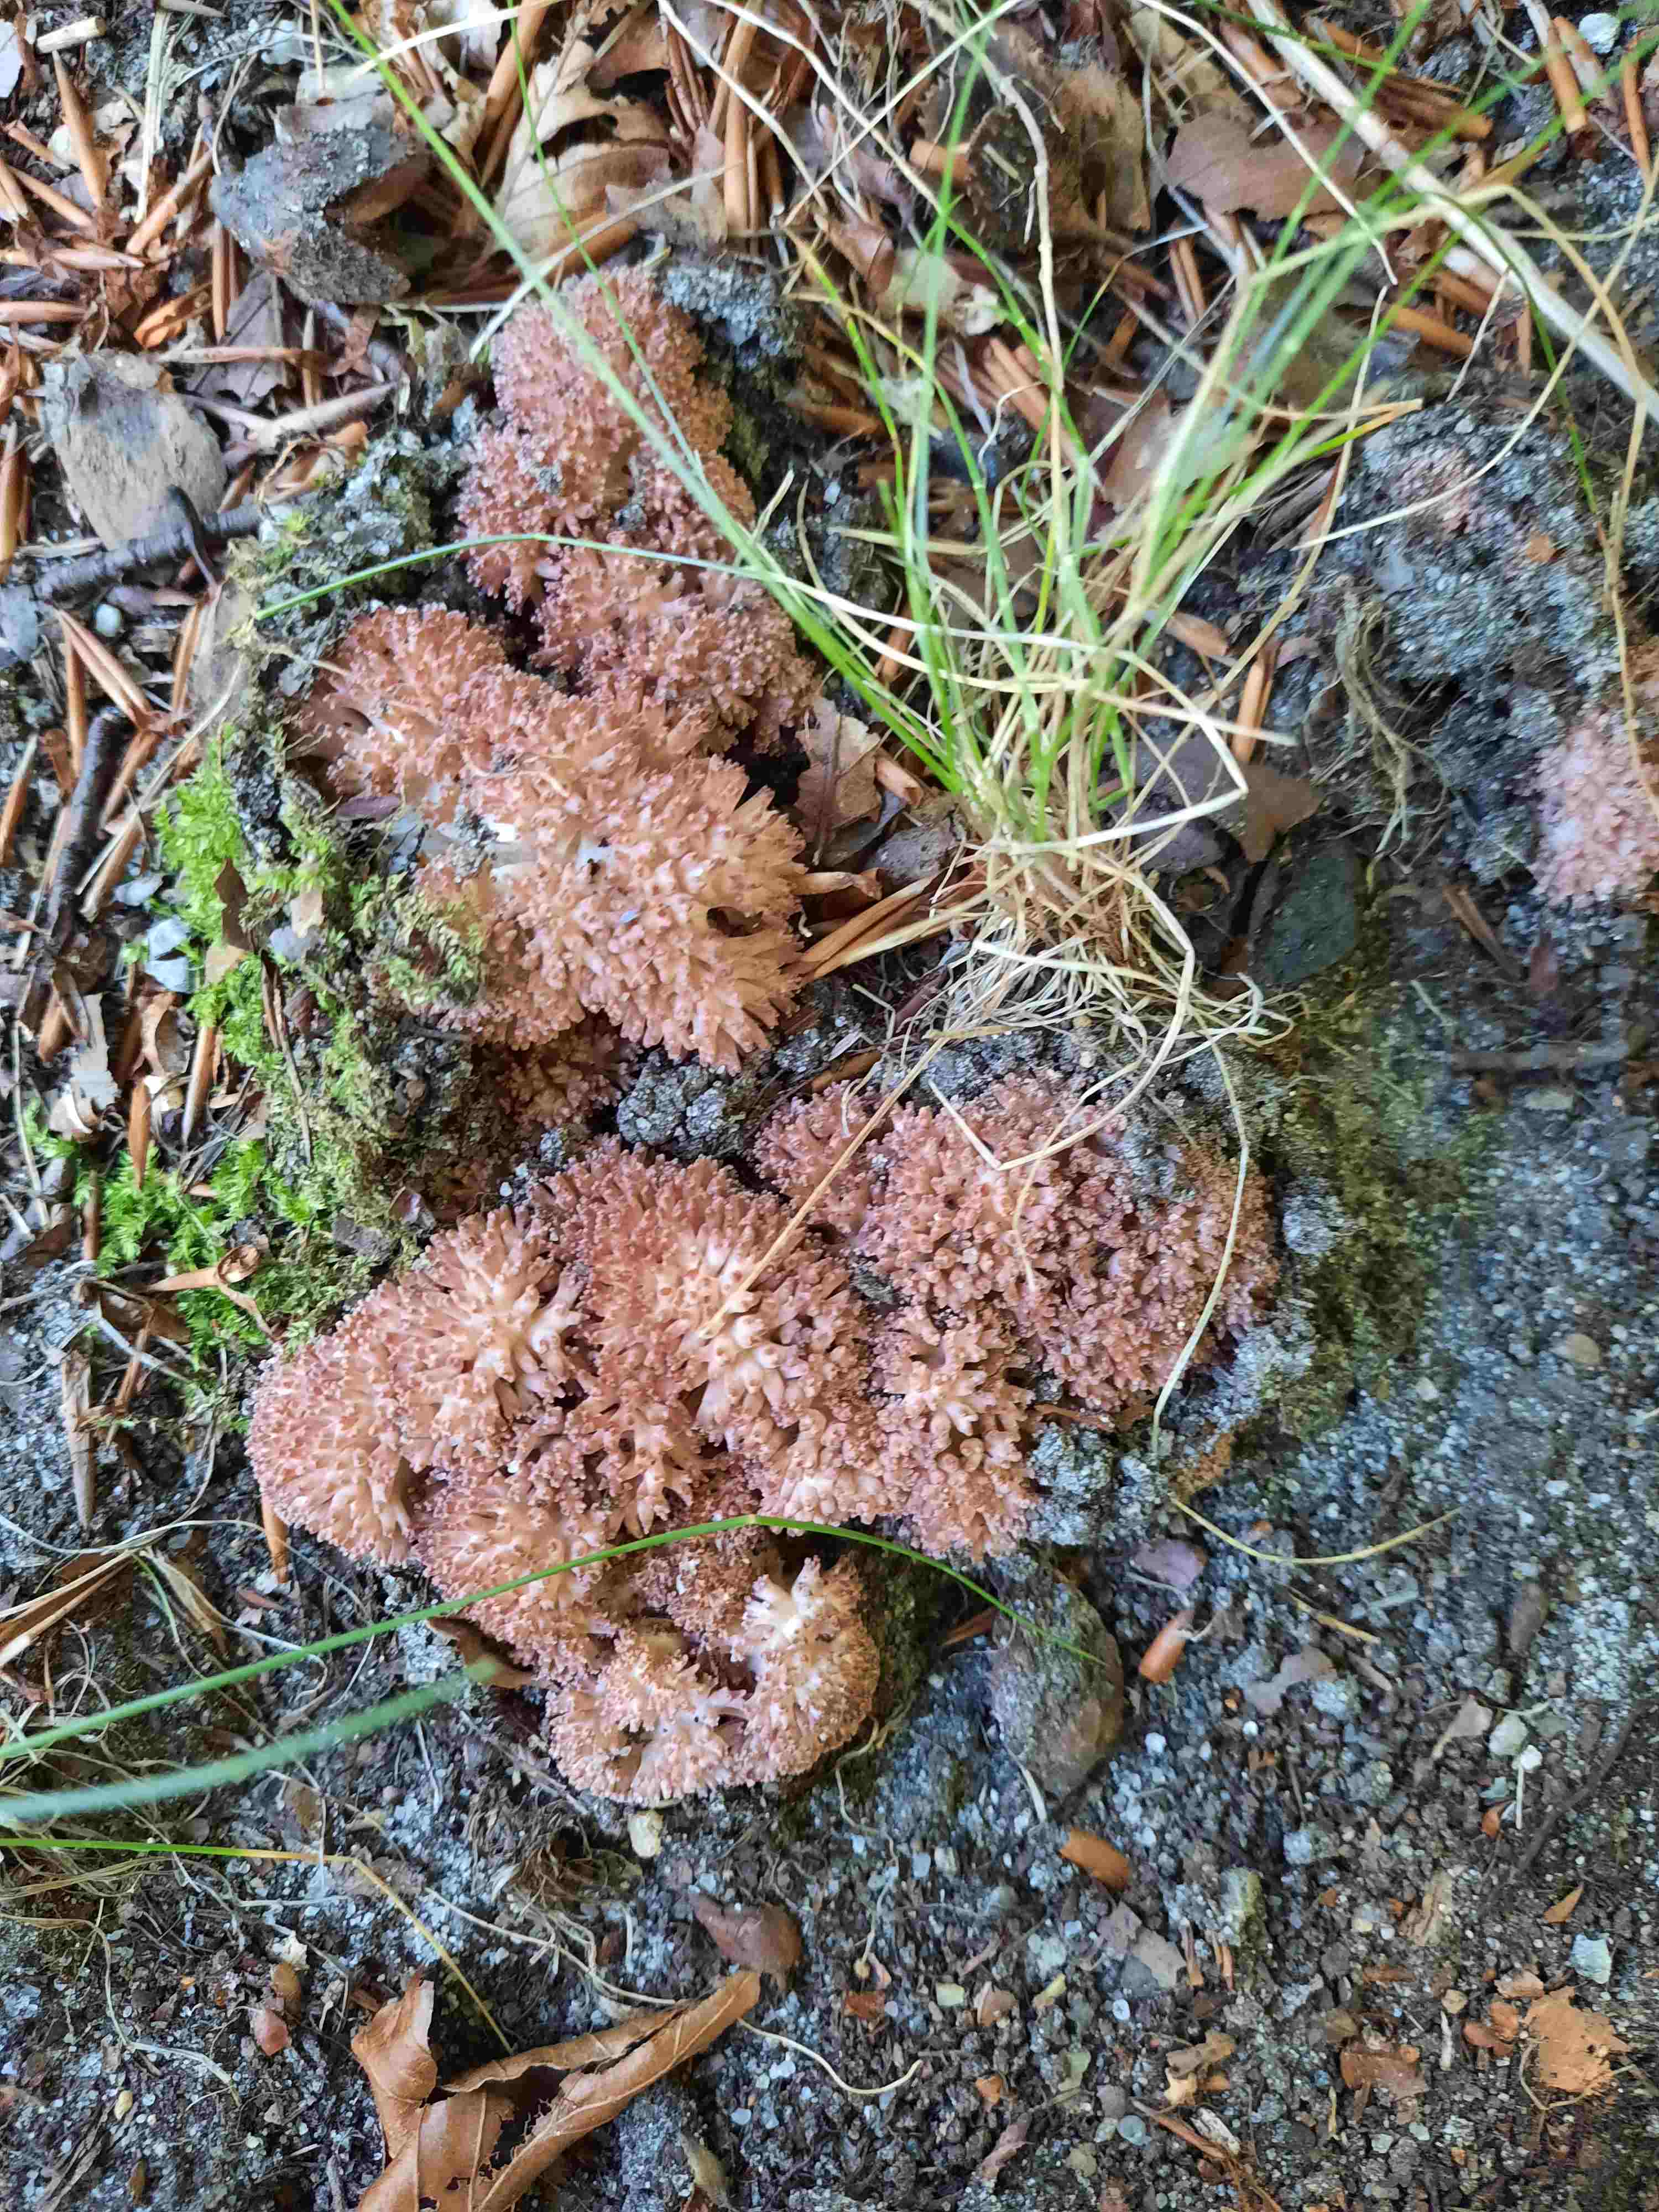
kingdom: Fungi
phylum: Basidiomycota
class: Agaricomycetes
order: Gomphales
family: Gomphaceae
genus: Ramaria
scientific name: Ramaria botrytis
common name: drue-koralsvamp
